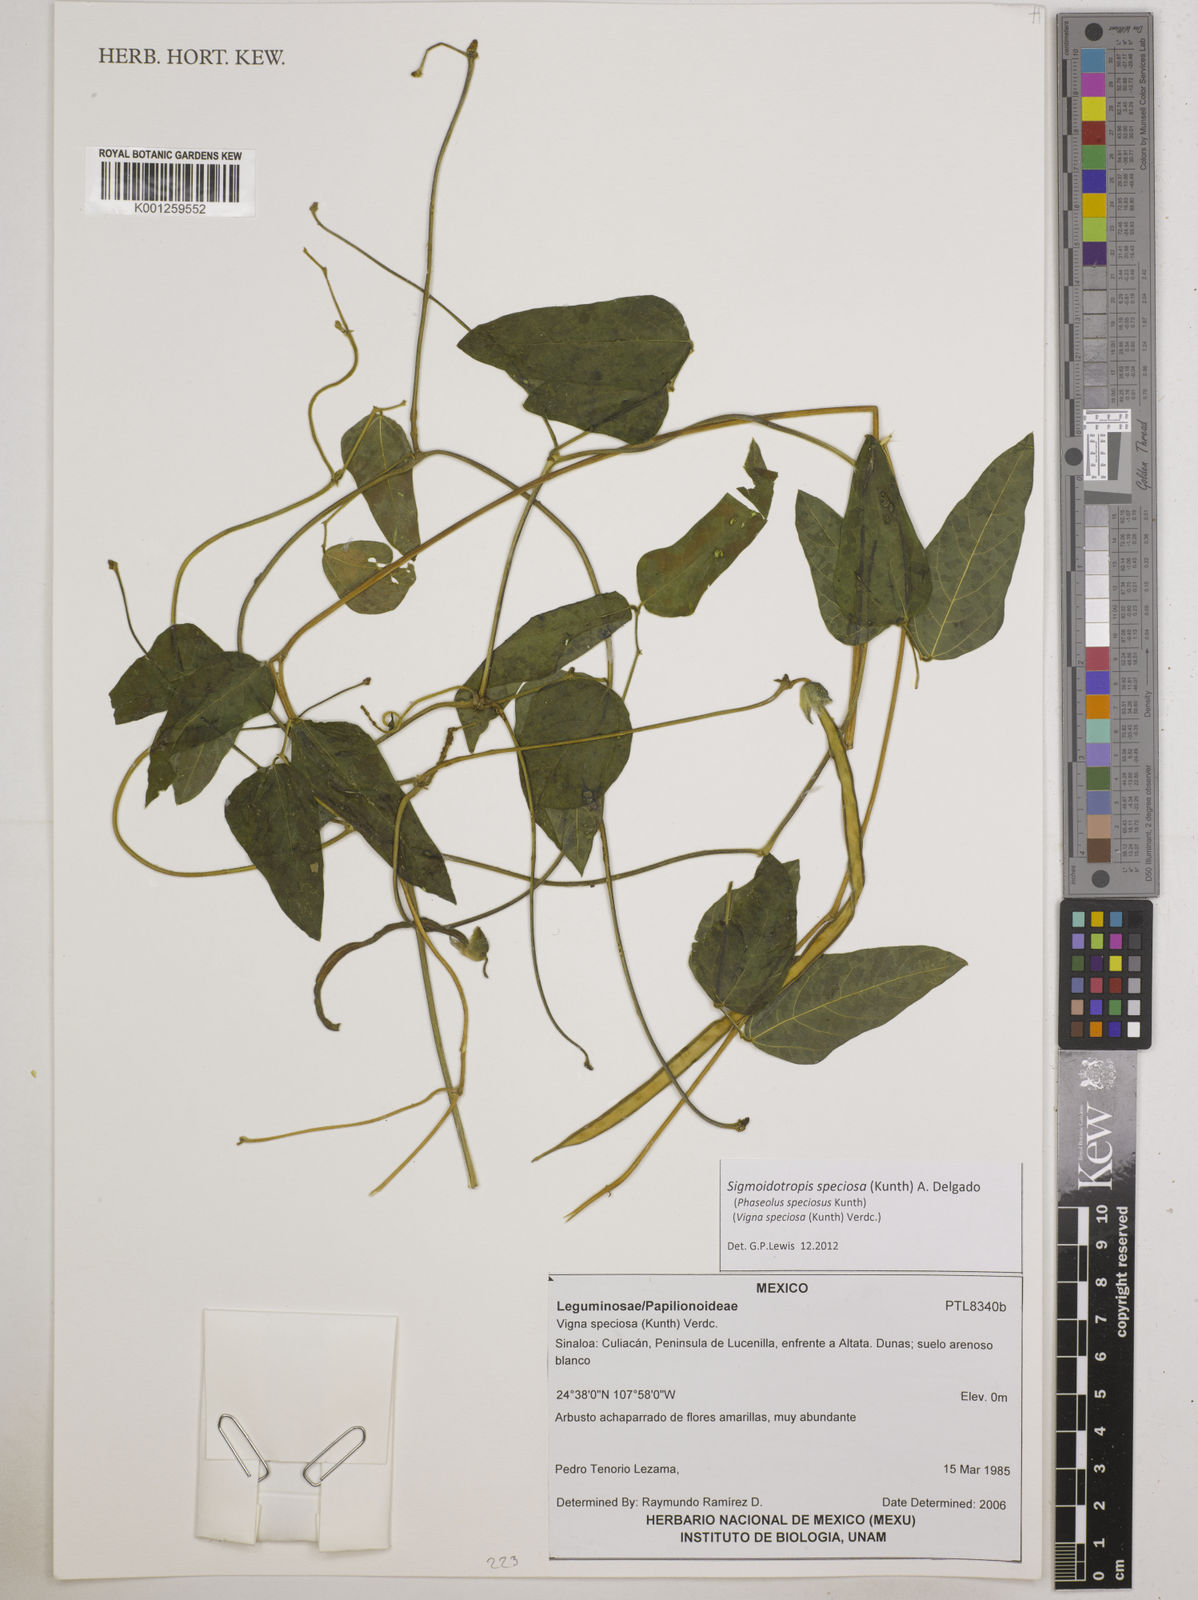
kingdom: Plantae
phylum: Tracheophyta
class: Magnoliopsida
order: Fabales
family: Fabaceae
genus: Sigmoidotropis
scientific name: Sigmoidotropis speciosa
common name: Snail flower
